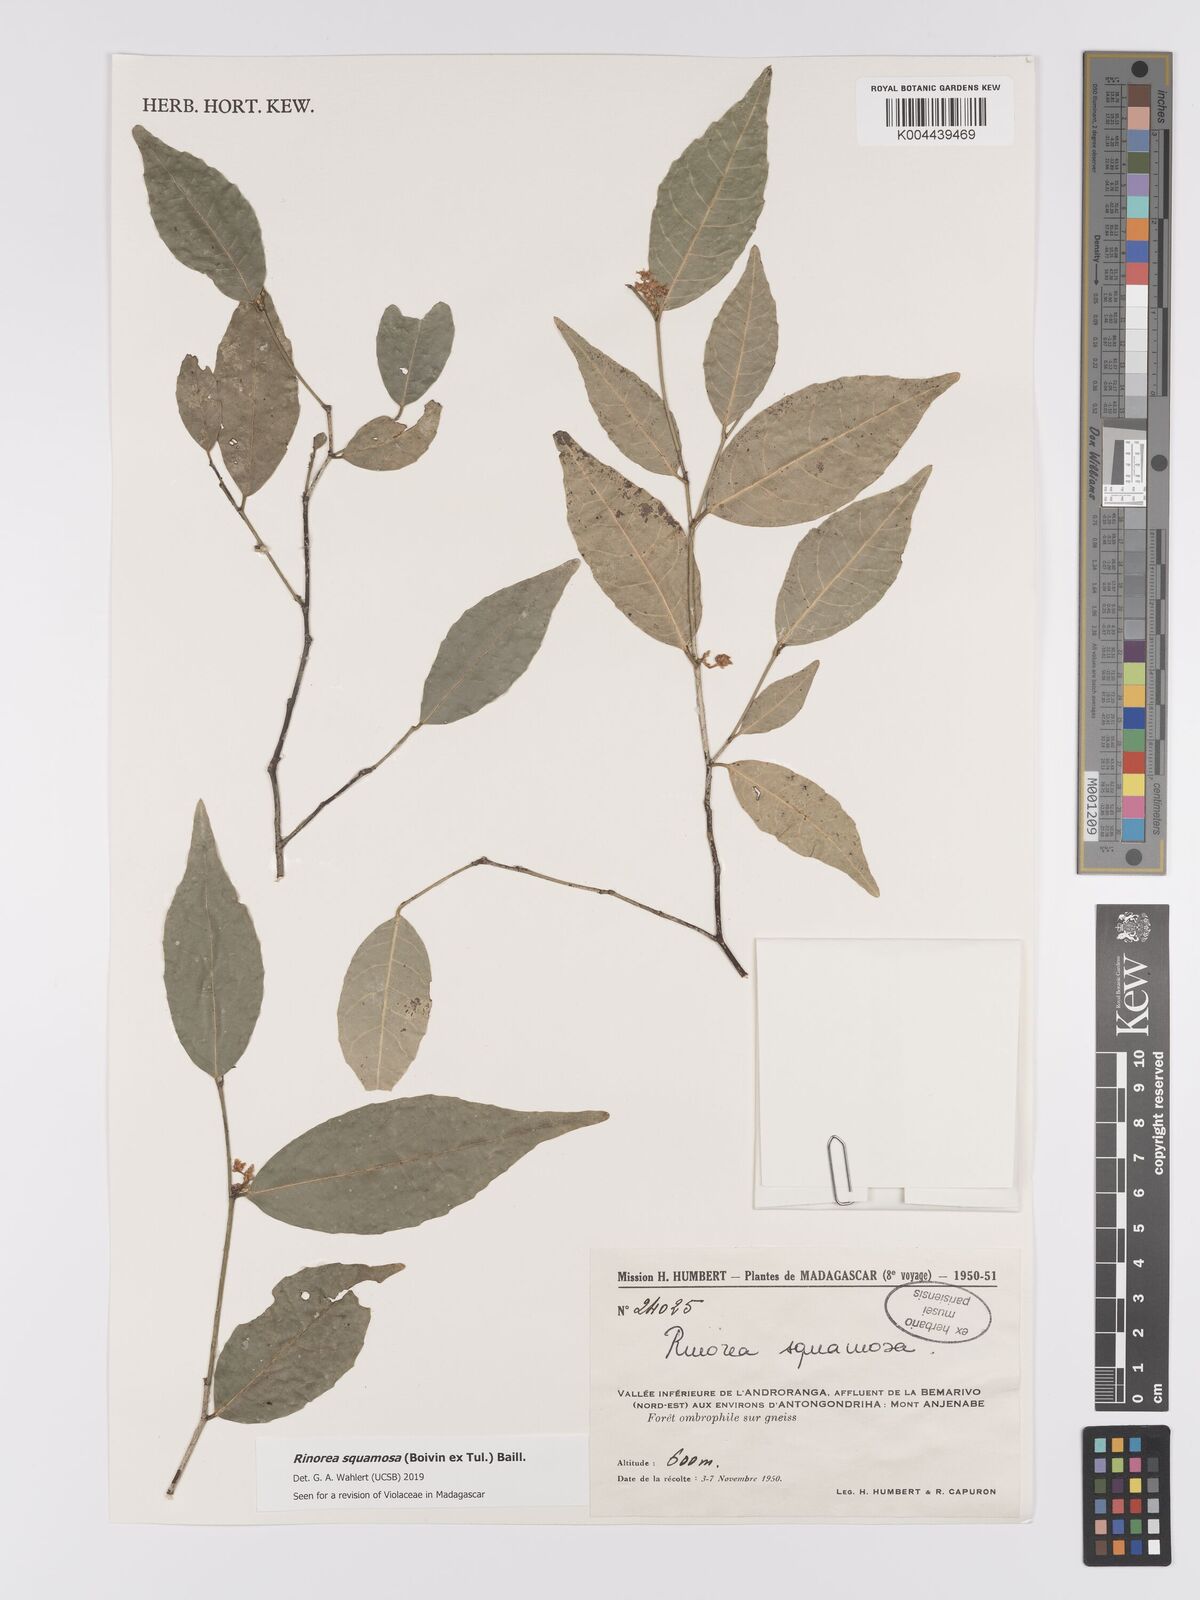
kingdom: Plantae
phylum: Tracheophyta
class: Magnoliopsida
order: Malpighiales
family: Violaceae
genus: Rinorea
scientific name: Rinorea squamosa
